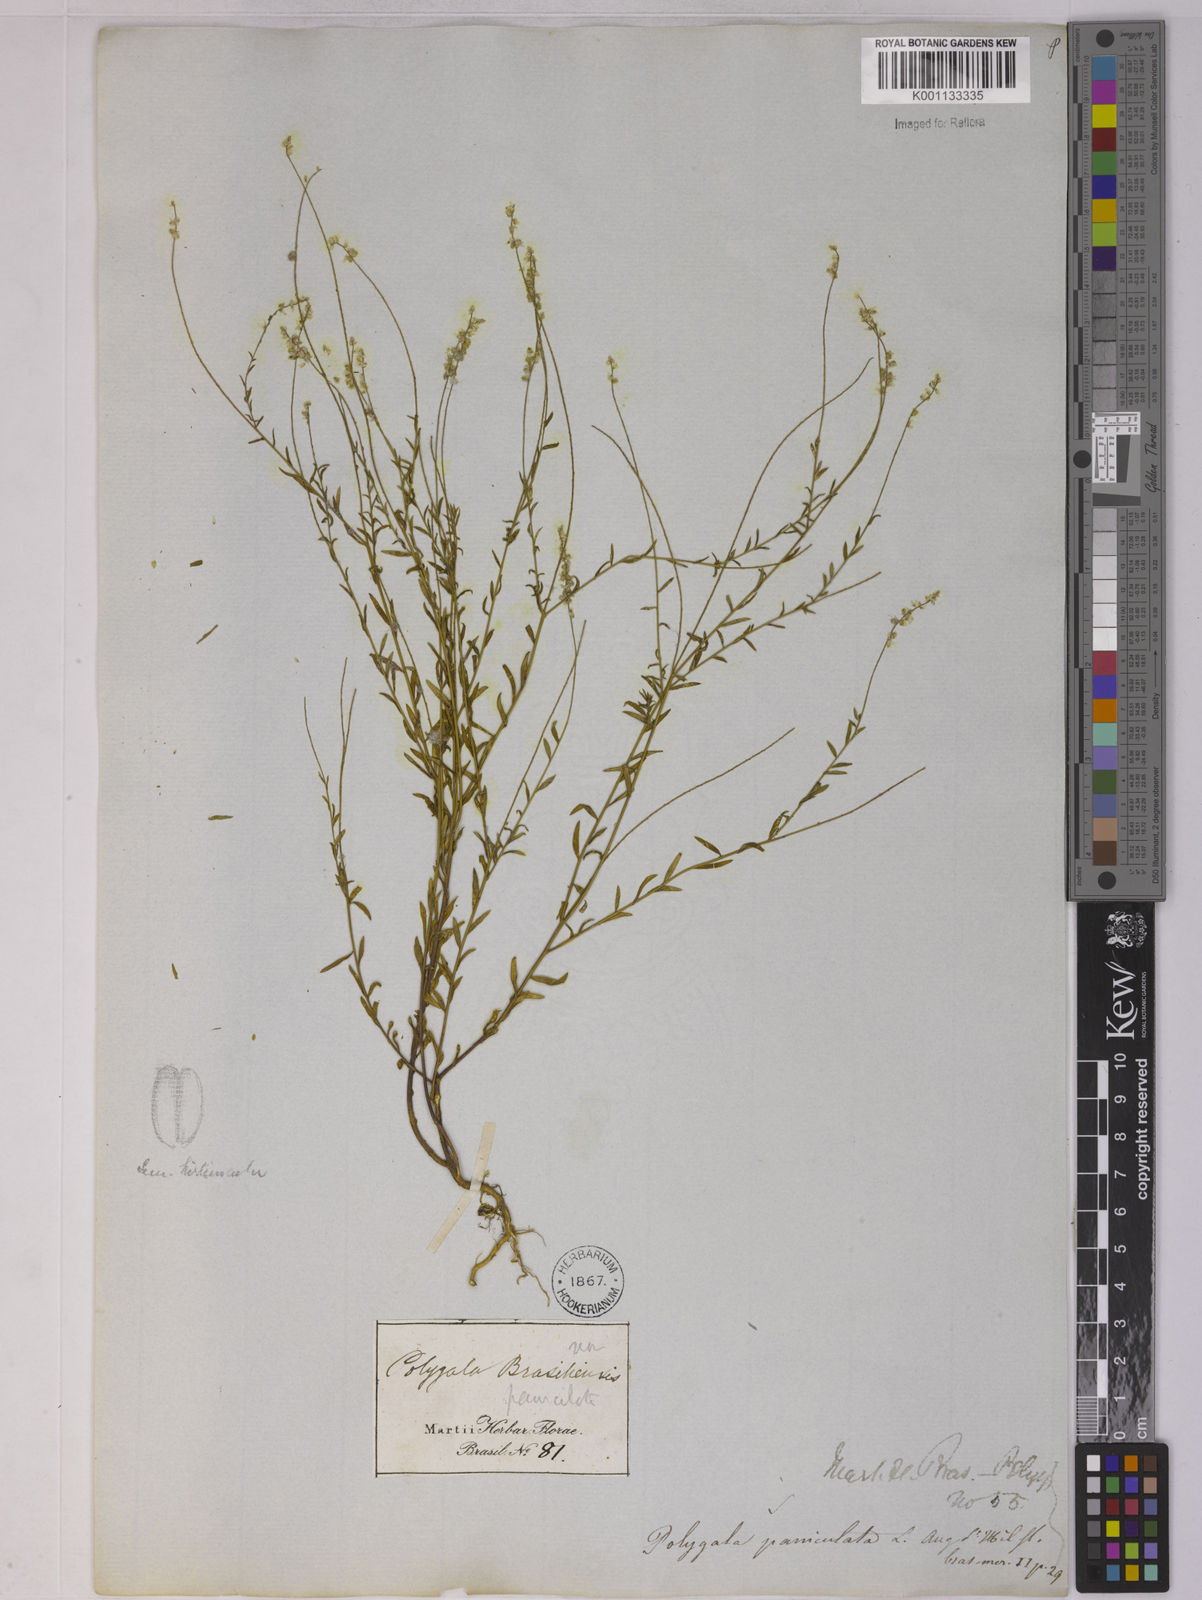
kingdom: Plantae
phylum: Tracheophyta
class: Magnoliopsida
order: Fabales
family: Polygalaceae
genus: Polygala
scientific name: Polygala paniculata
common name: Orosne
